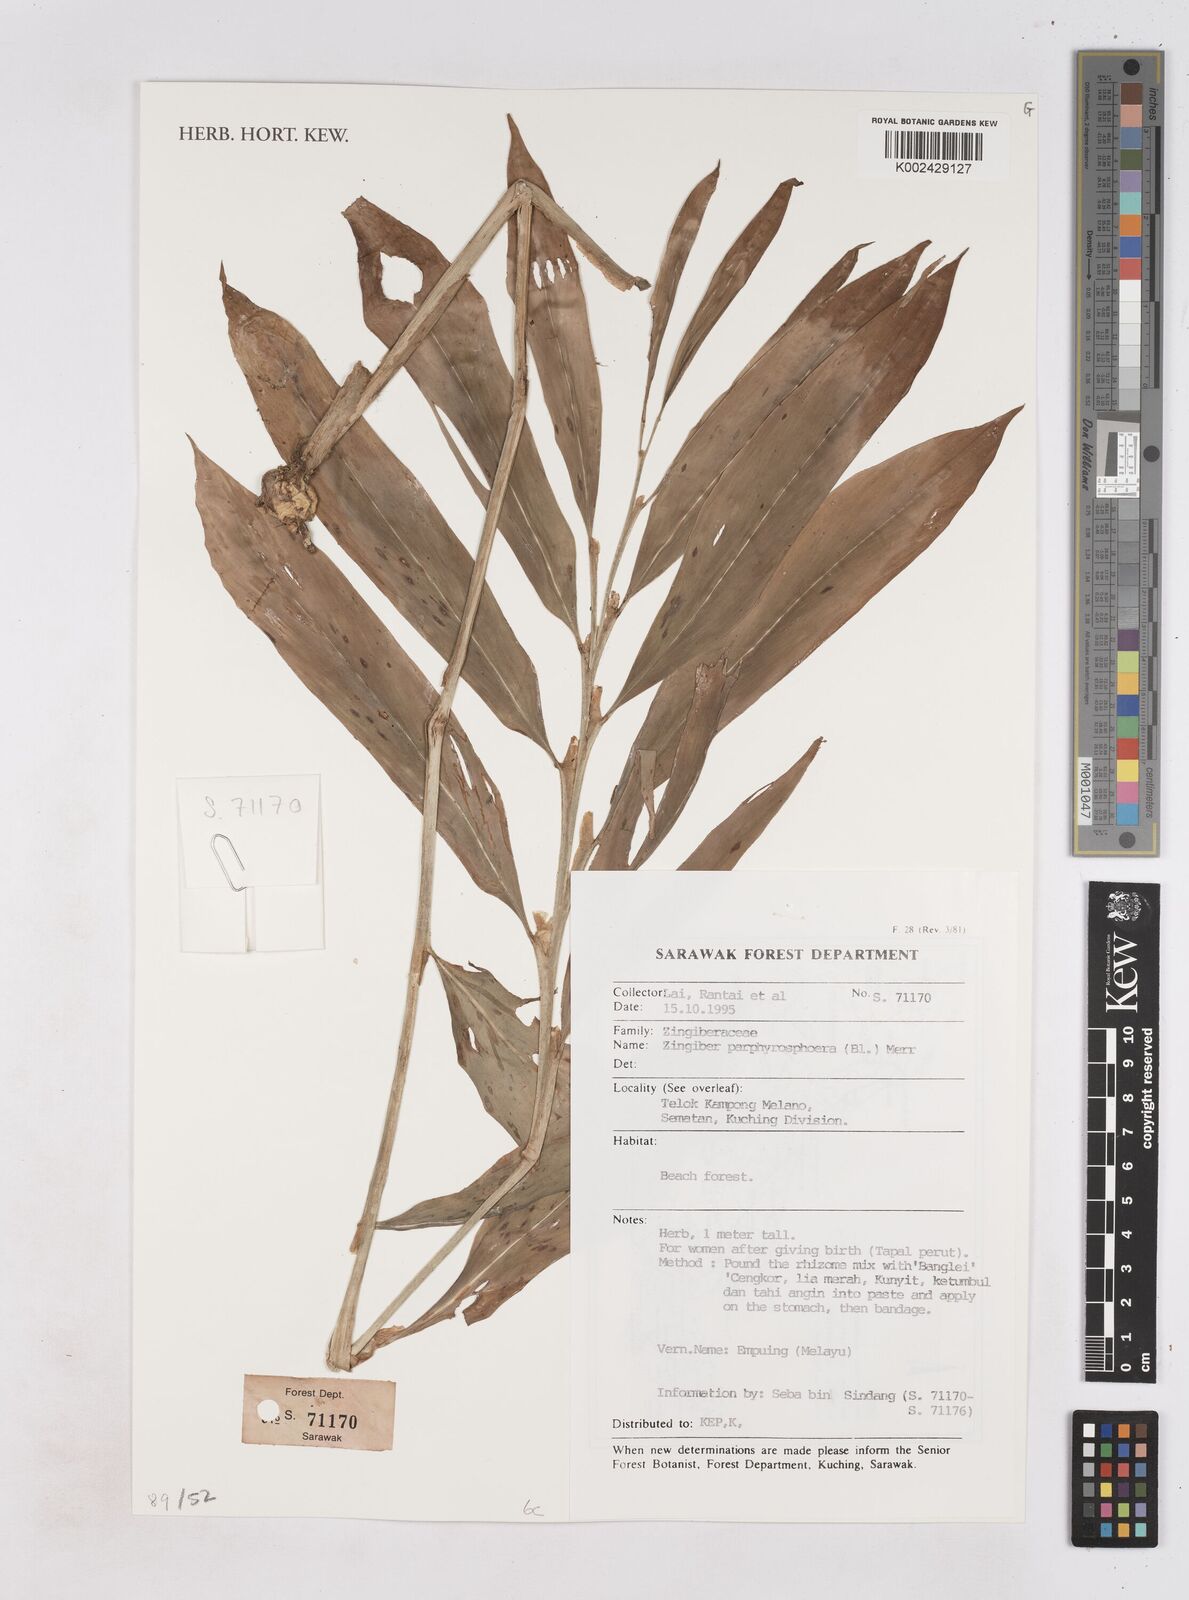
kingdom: Plantae
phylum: Tracheophyta
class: Liliopsida
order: Zingiberales
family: Zingiberaceae
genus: Zingiber
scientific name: Zingiber porphyrosphaerum
